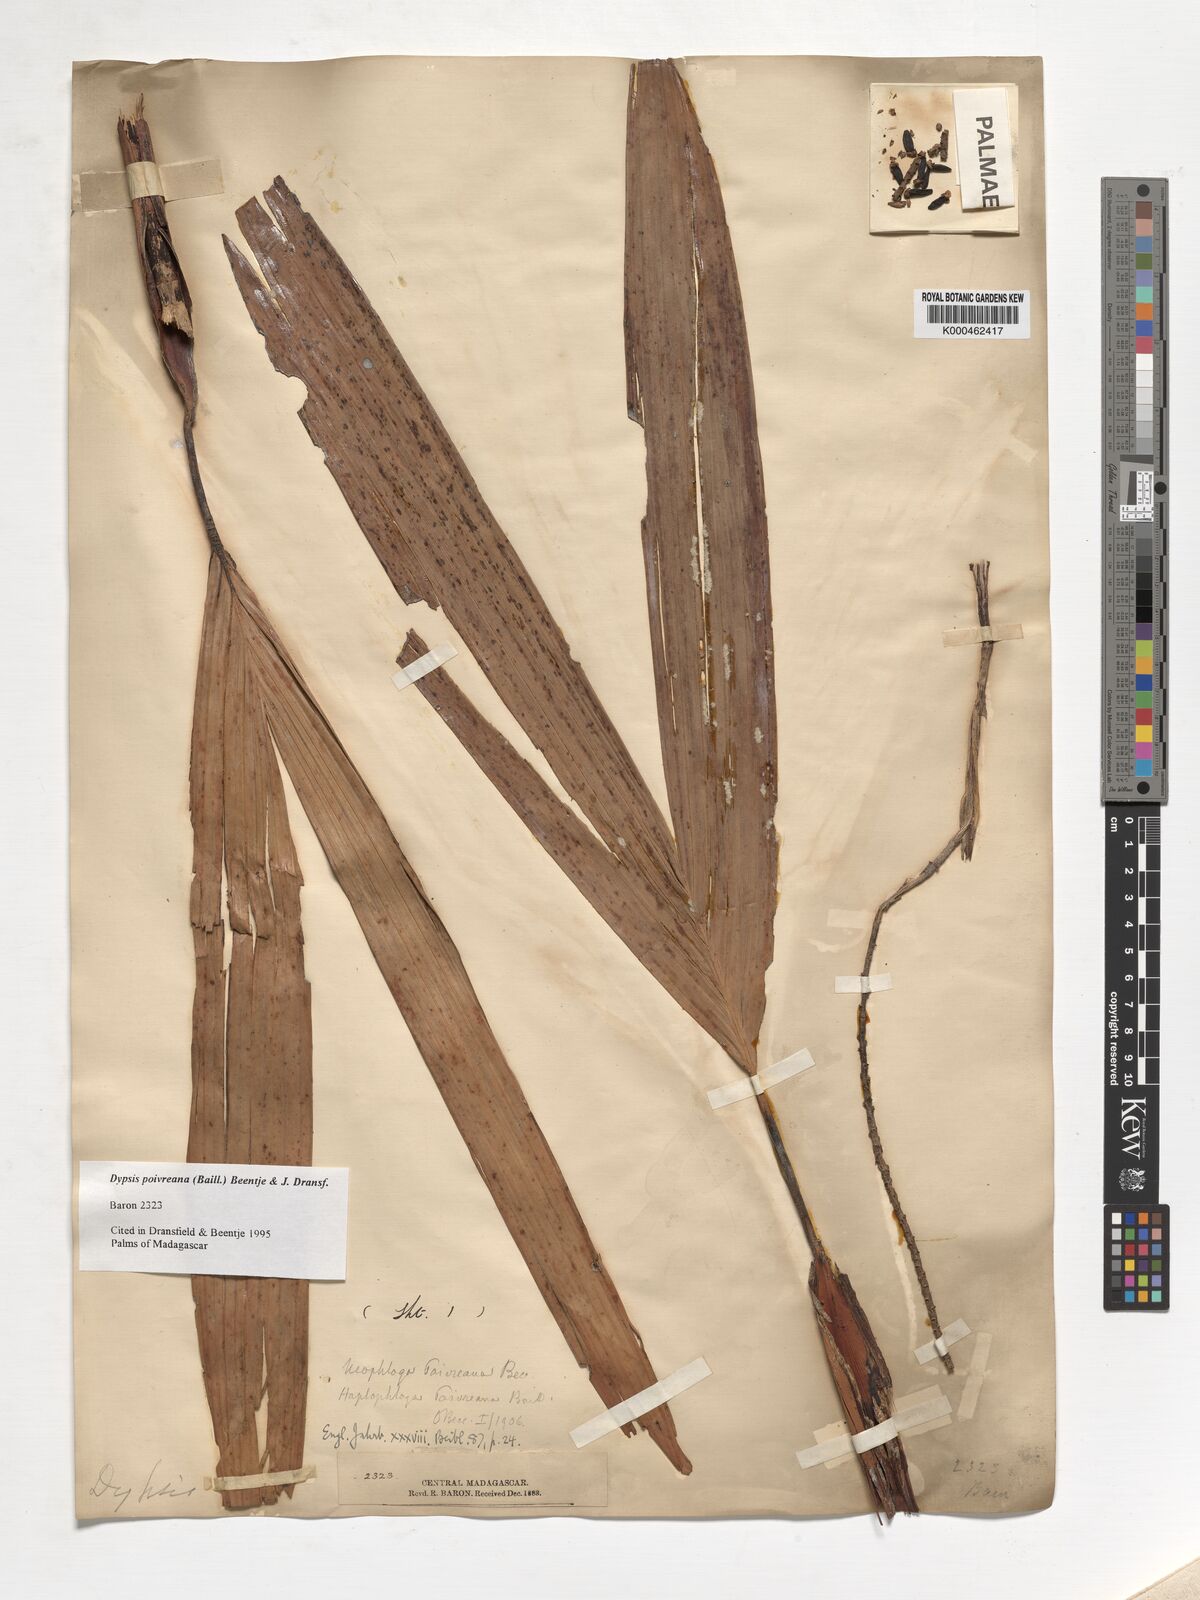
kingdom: Plantae
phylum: Tracheophyta
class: Liliopsida
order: Arecales
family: Arecaceae
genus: Dypsis
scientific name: Dypsis poivreana
